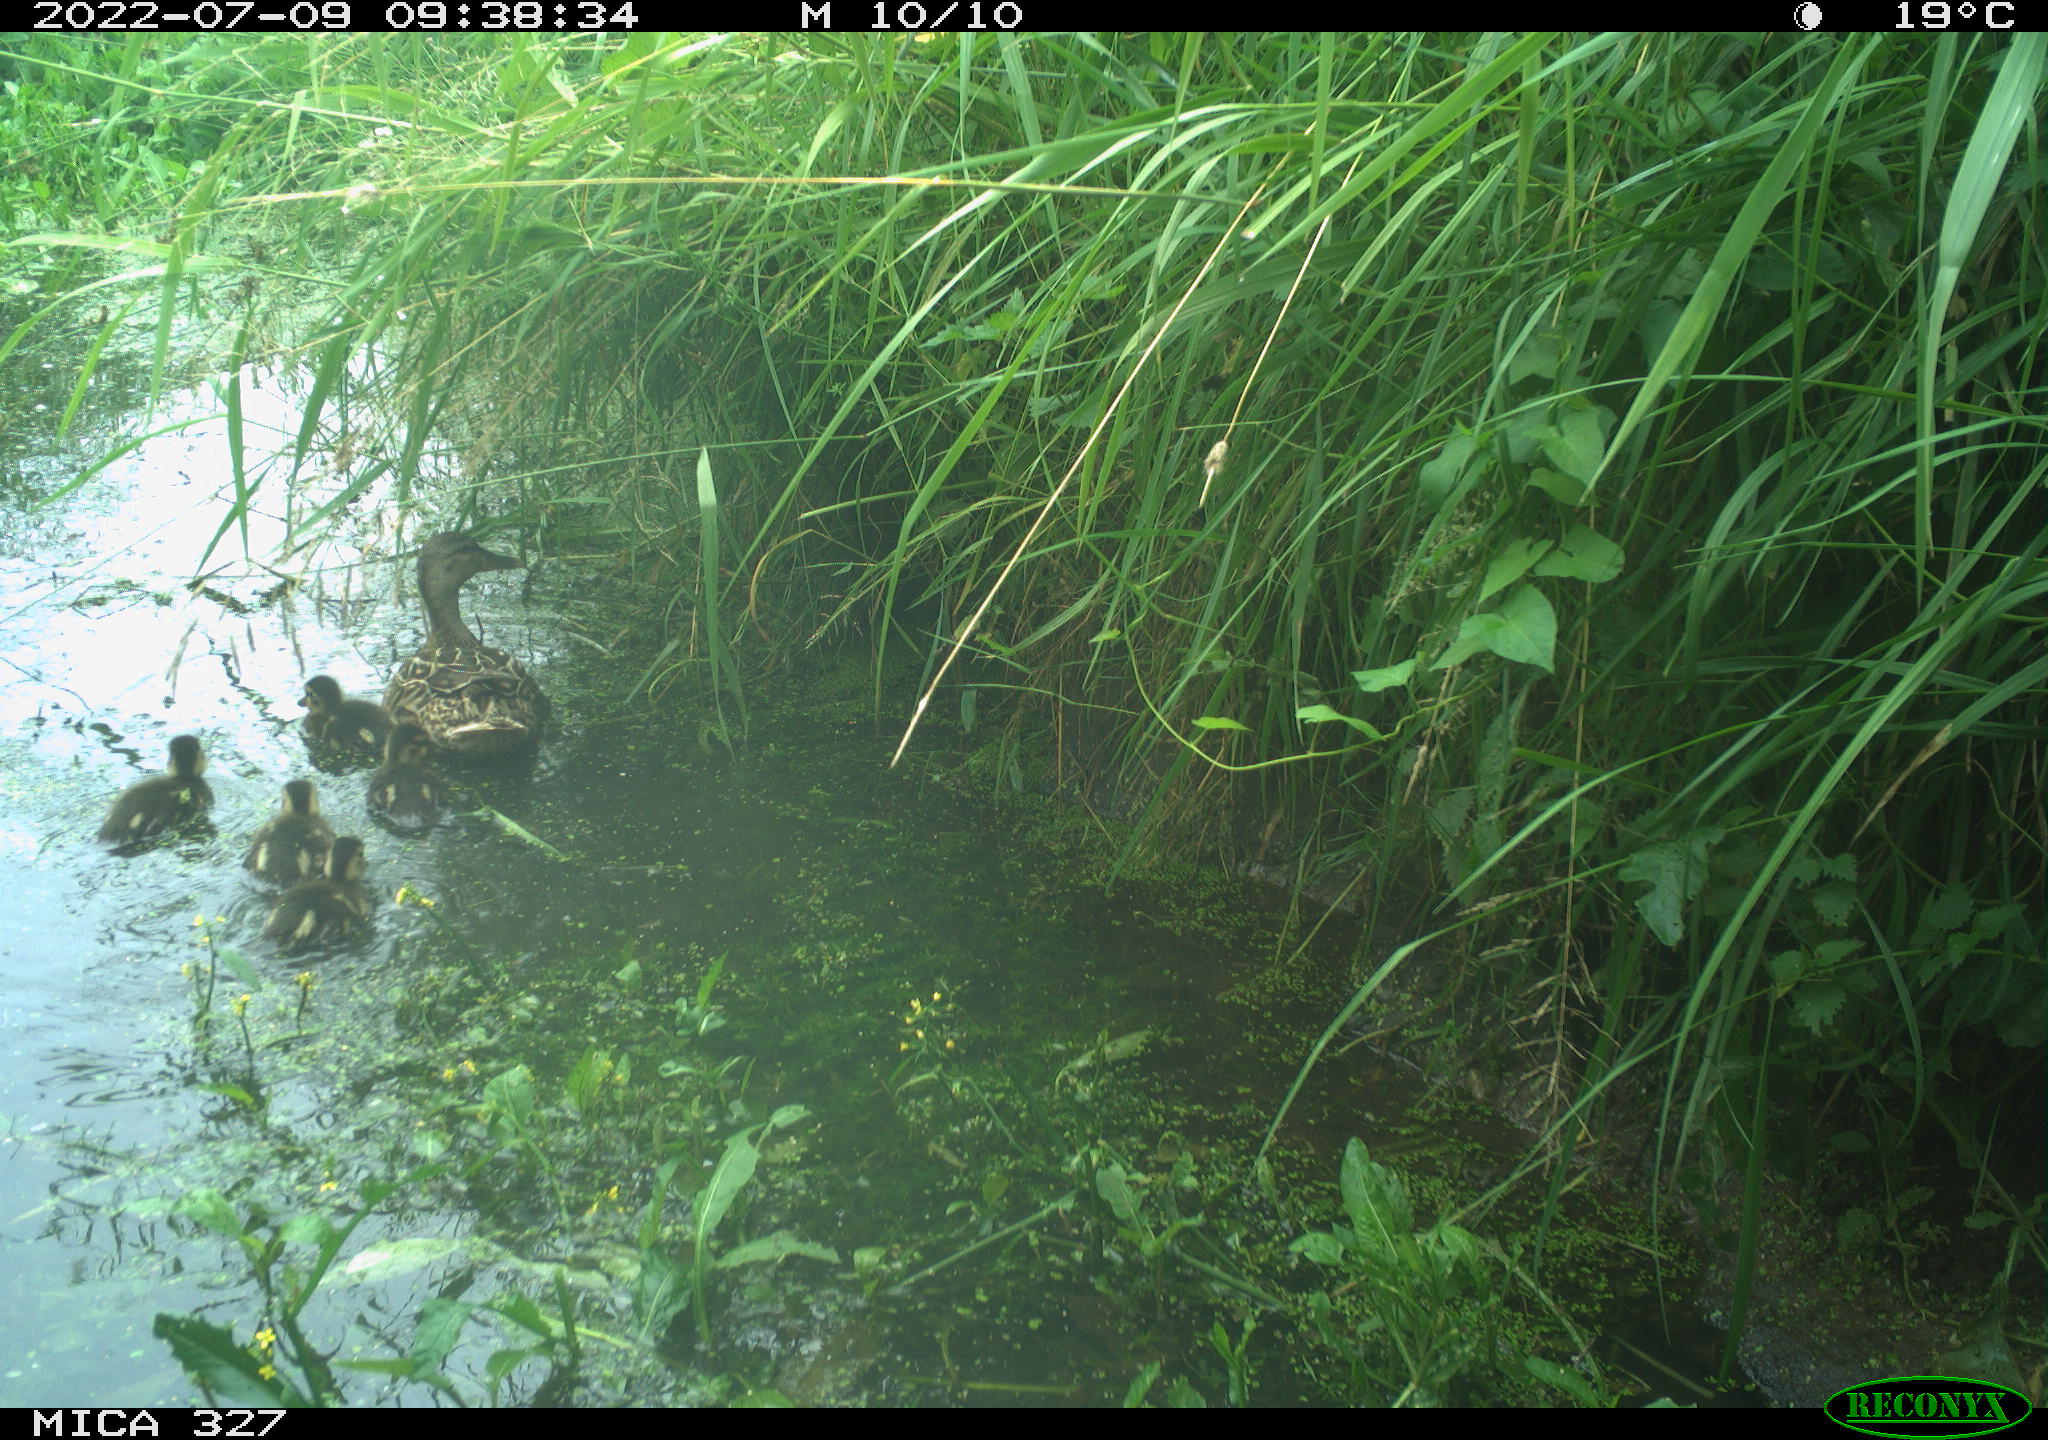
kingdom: Animalia
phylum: Chordata
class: Aves
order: Anseriformes
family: Anatidae
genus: Anas
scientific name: Anas
